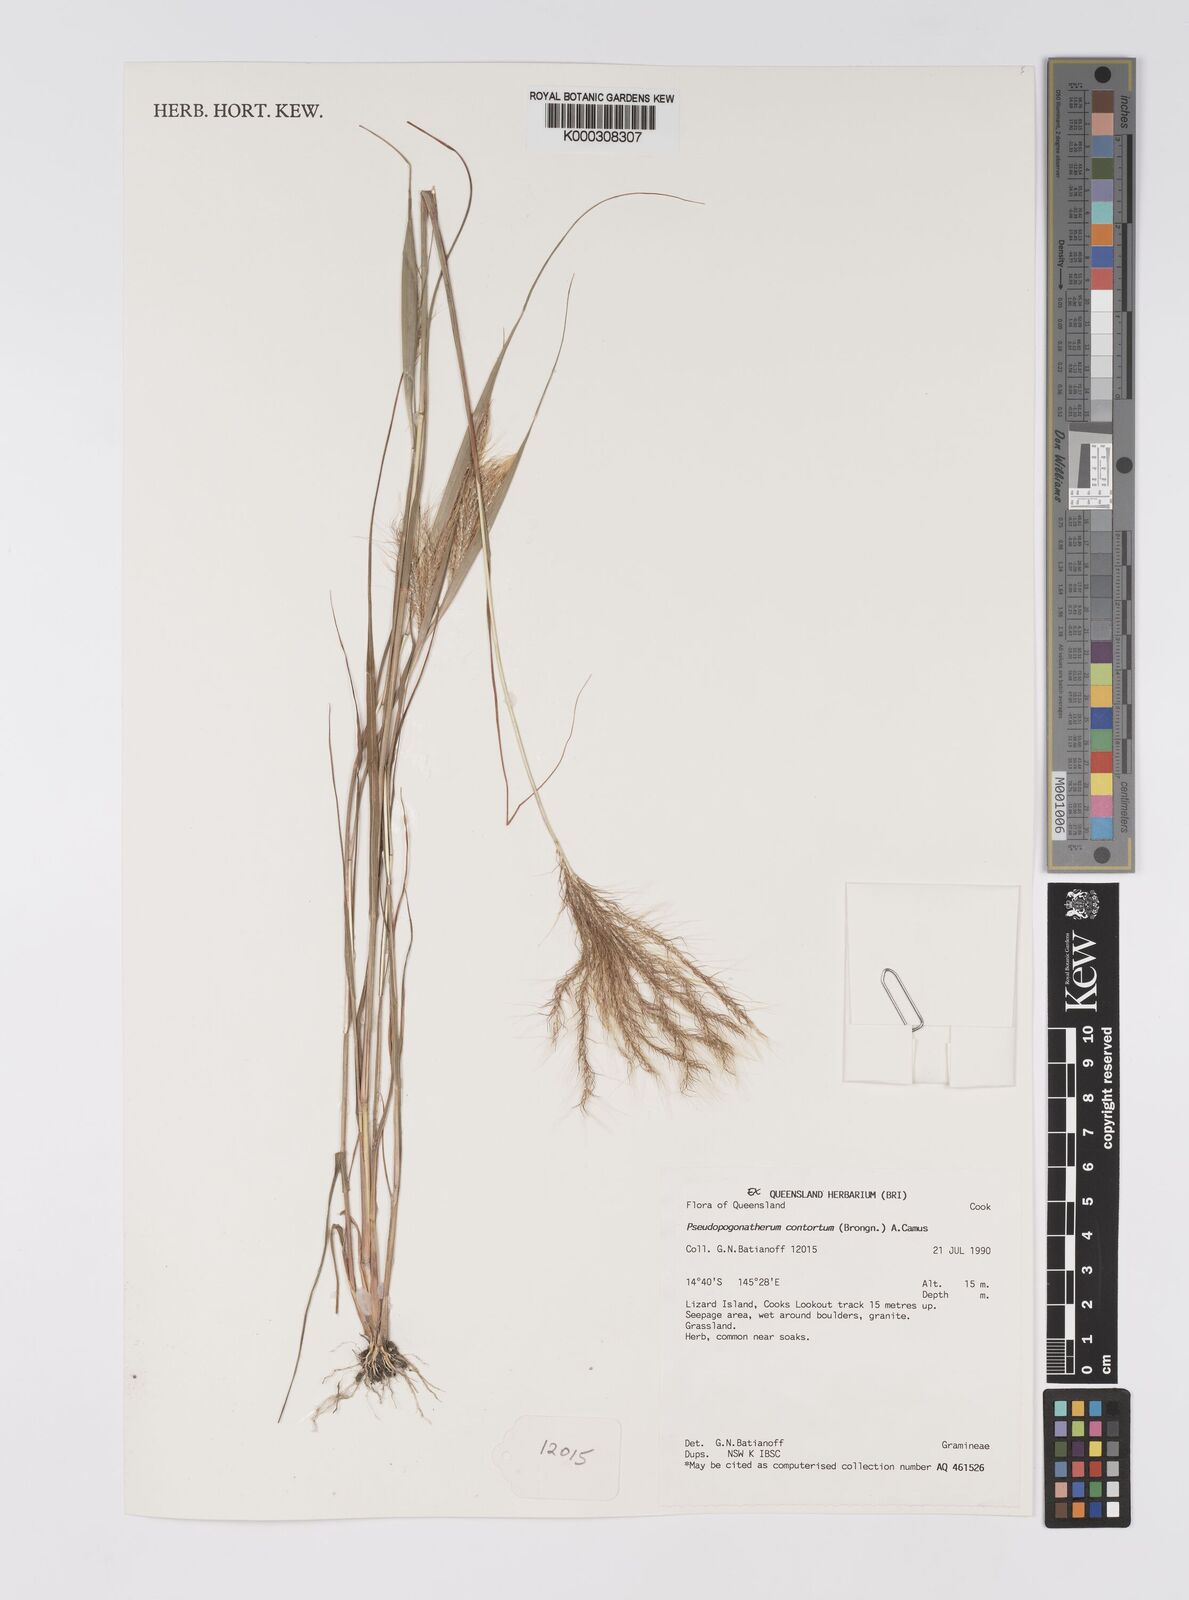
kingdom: Plantae
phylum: Tracheophyta
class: Liliopsida
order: Poales
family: Poaceae
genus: Eulalia
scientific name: Eulalia
